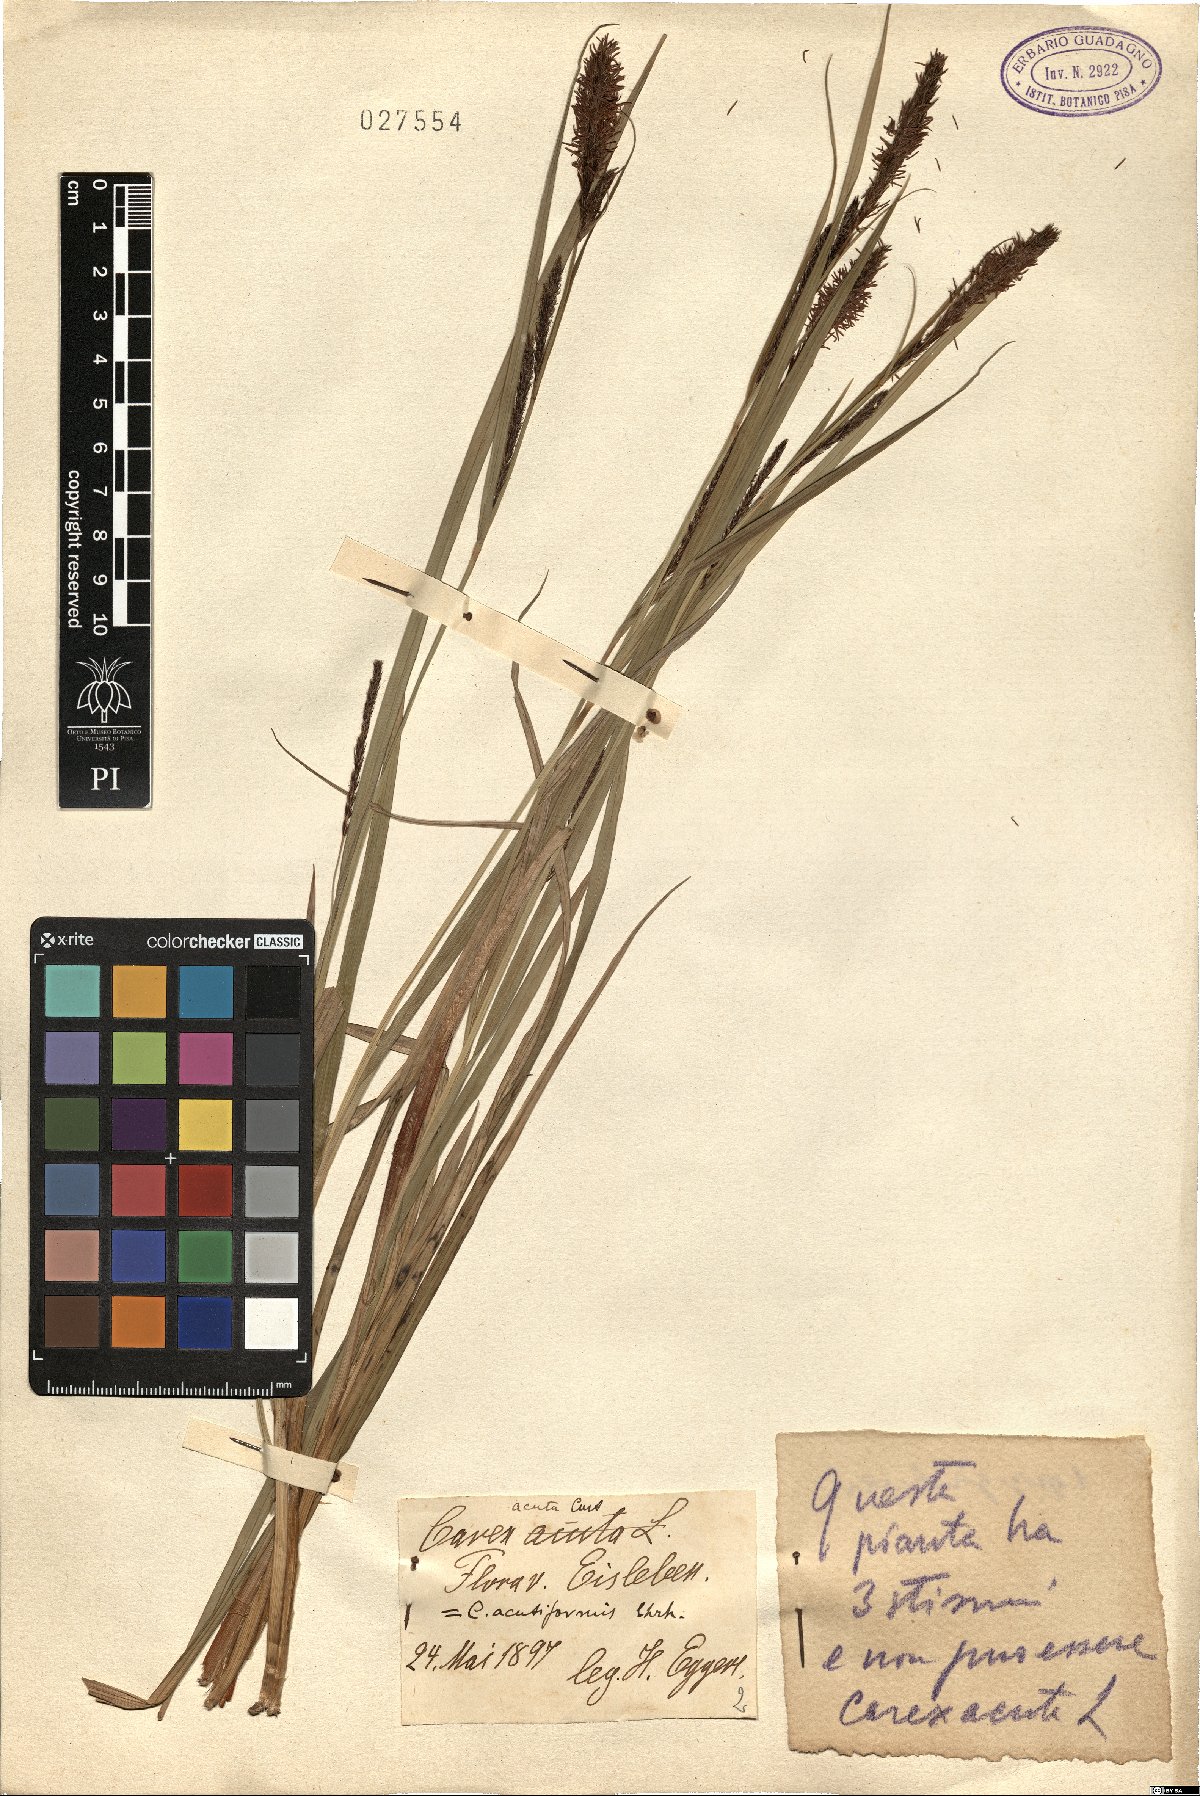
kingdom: Plantae
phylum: Tracheophyta
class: Liliopsida
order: Poales
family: Cyperaceae
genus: Carex
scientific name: Carex acuta
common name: Slender tufted-sedge
